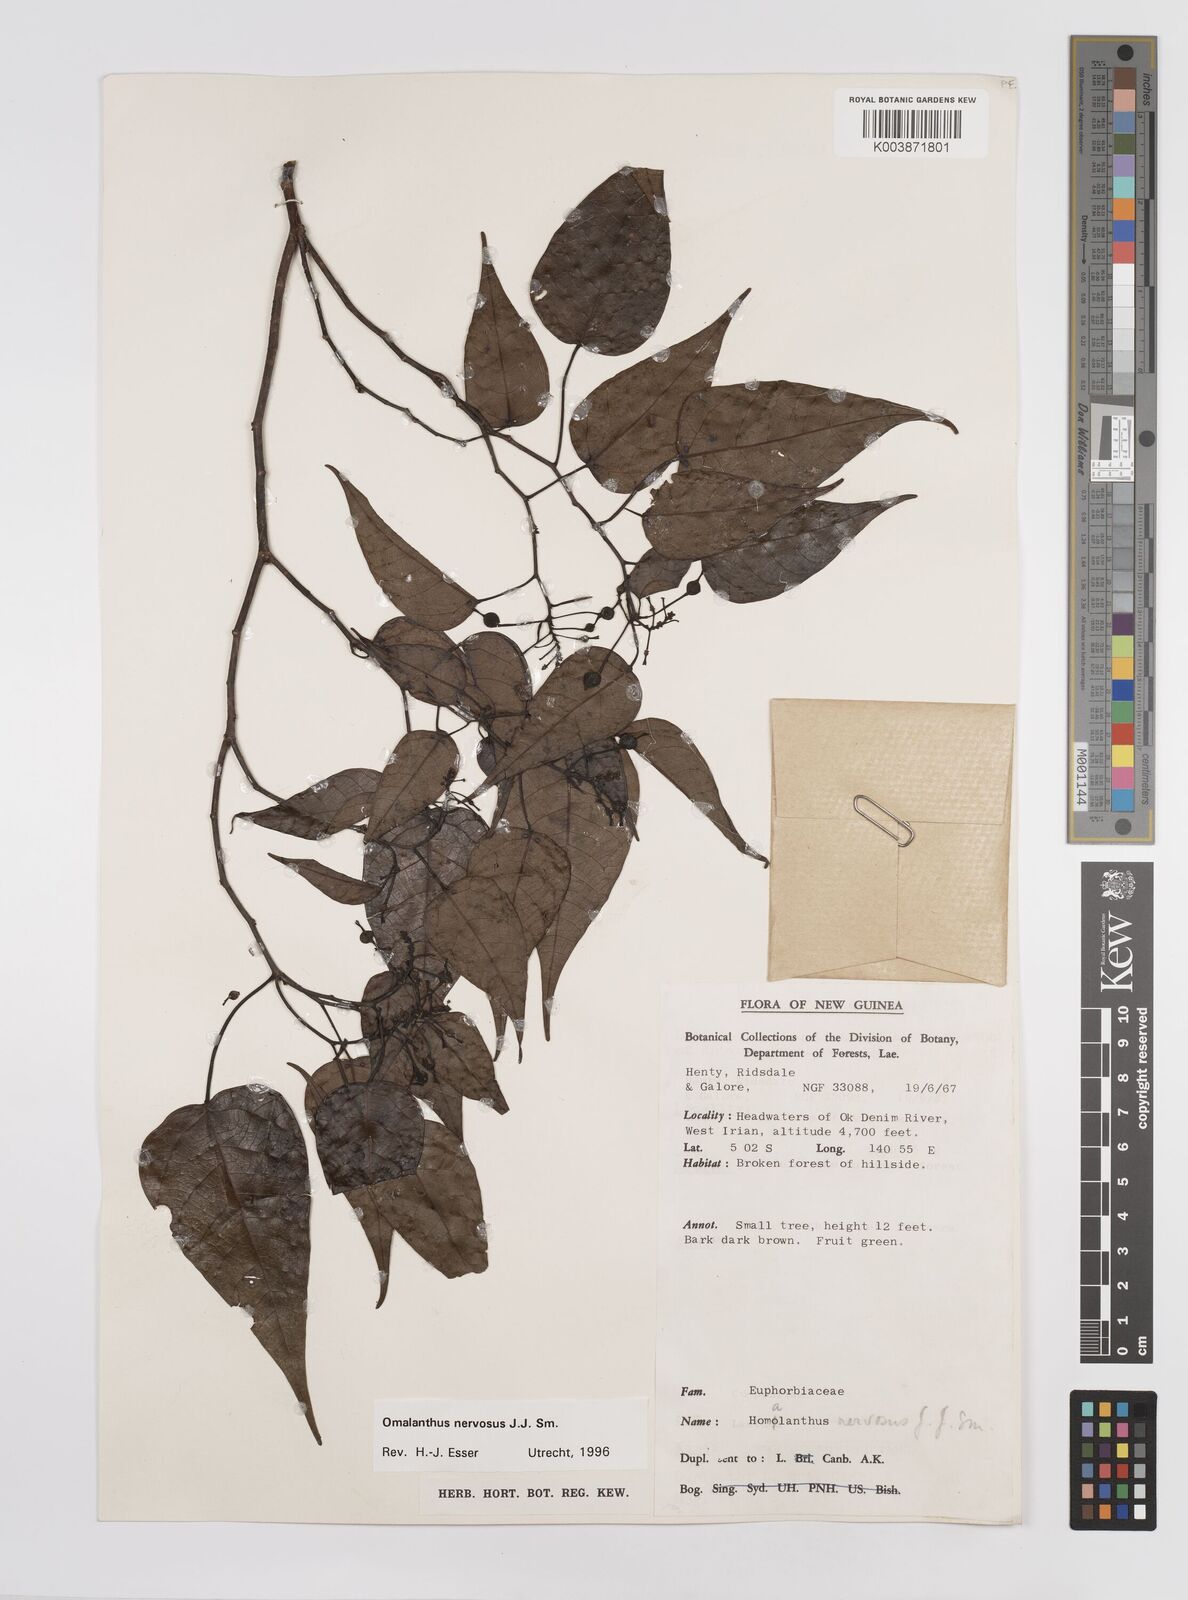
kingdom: Plantae
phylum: Tracheophyta
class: Magnoliopsida
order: Malpighiales
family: Euphorbiaceae
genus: Homalanthus
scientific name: Homalanthus nervosus
